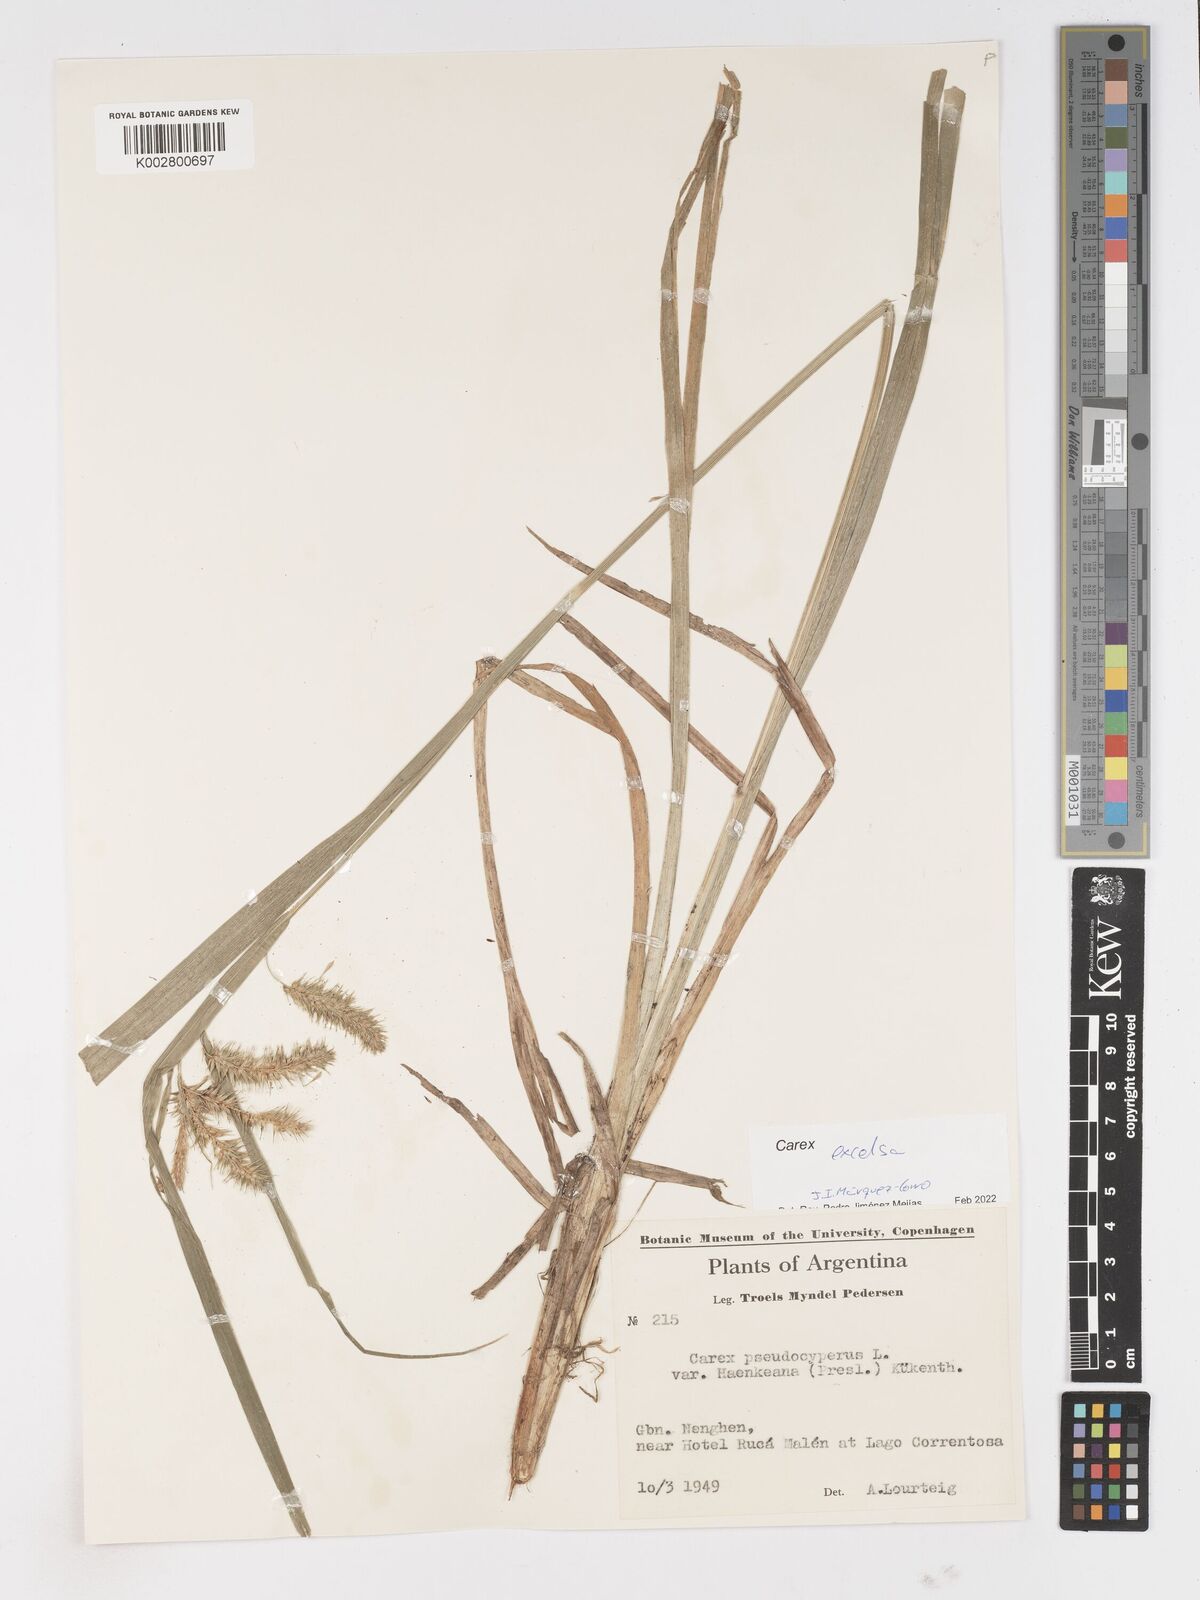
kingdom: Plantae
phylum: Tracheophyta
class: Liliopsida
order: Poales
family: Cyperaceae
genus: Carex
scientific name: Carex excelsa
